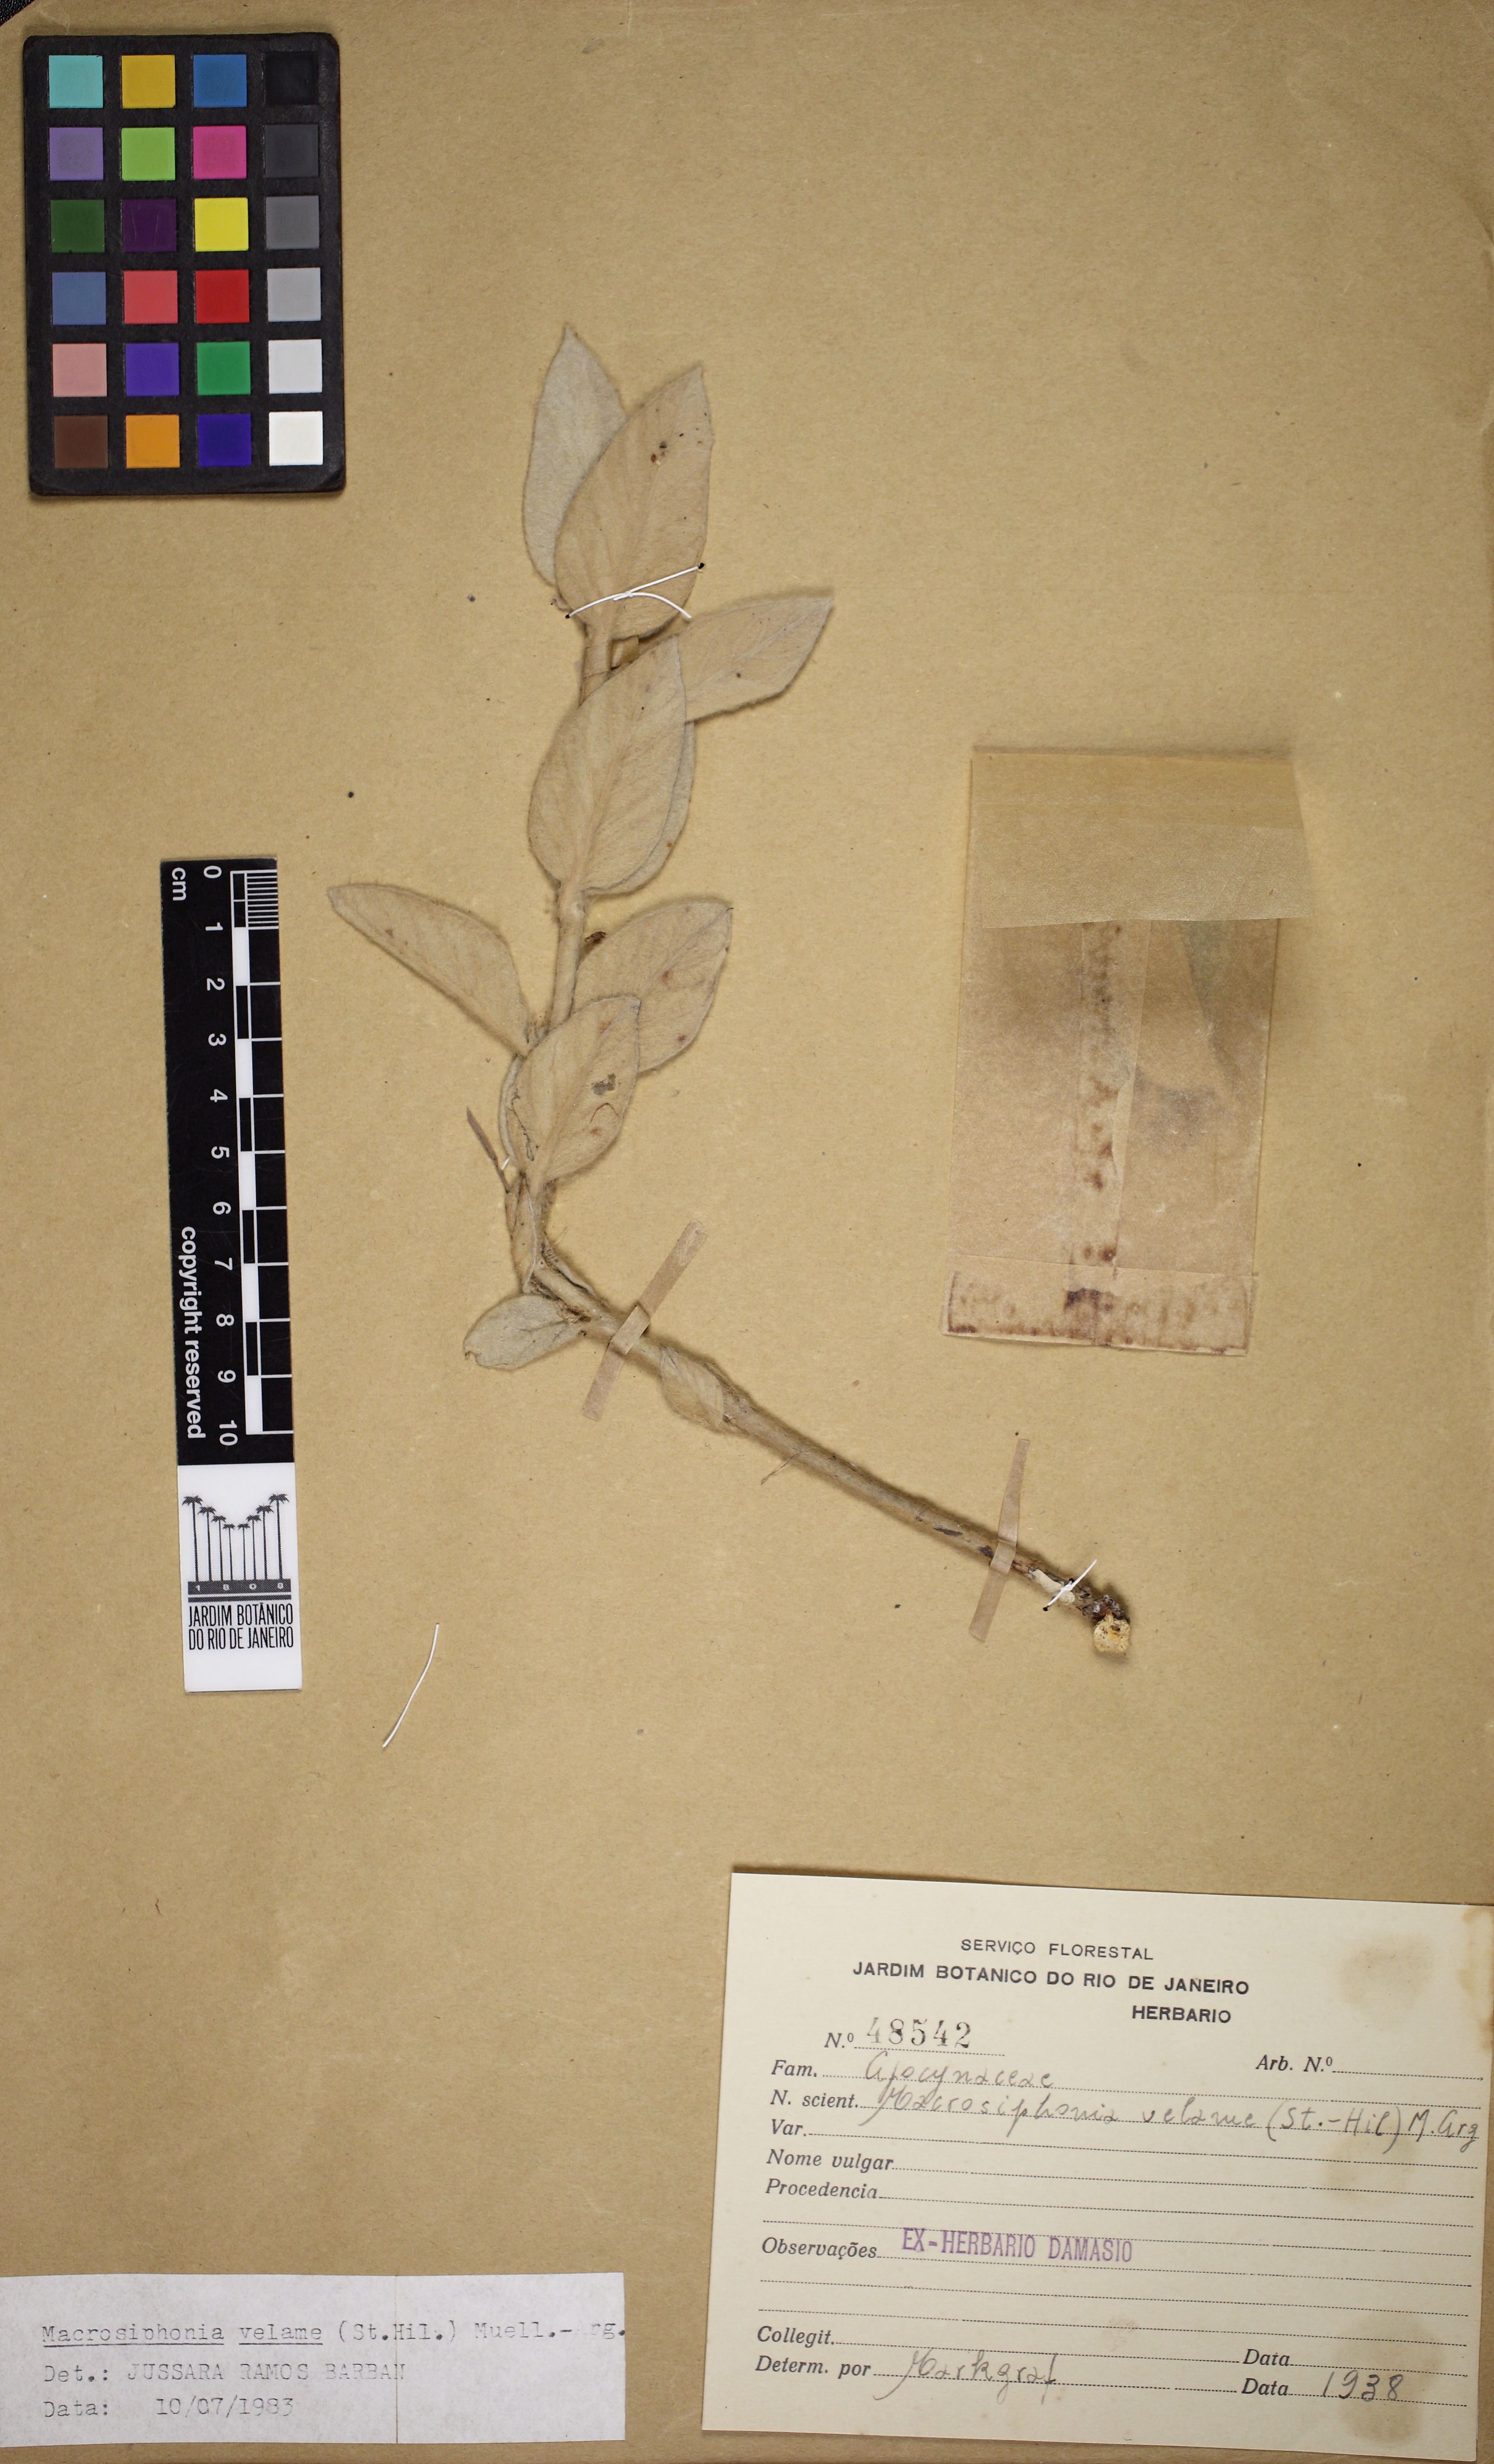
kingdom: Plantae
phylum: Tracheophyta
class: Magnoliopsida
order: Gentianales
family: Apocynaceae
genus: Mandevilla
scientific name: Mandevilla velame
